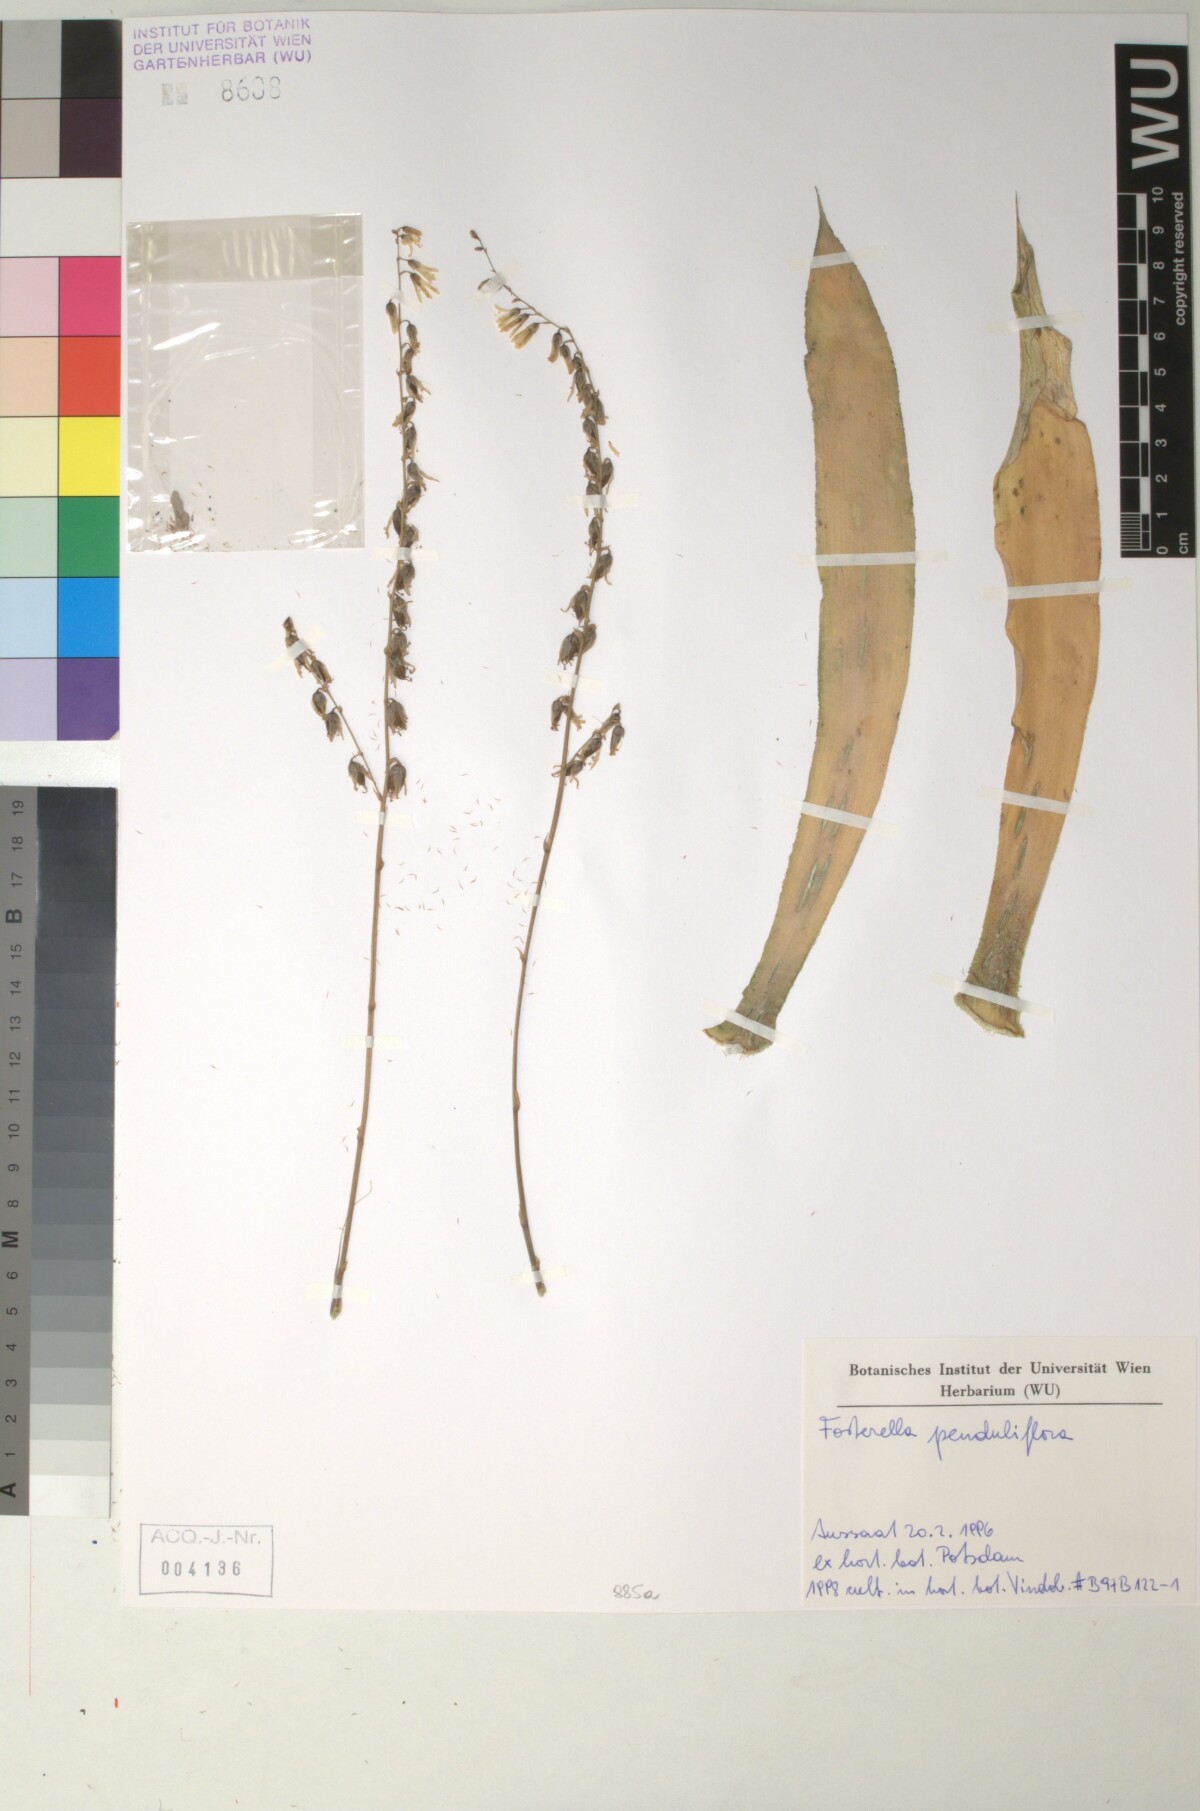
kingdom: Plantae
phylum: Tracheophyta
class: Liliopsida
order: Poales
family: Bromeliaceae
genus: Fosterella
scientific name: Fosterella penduliflora
